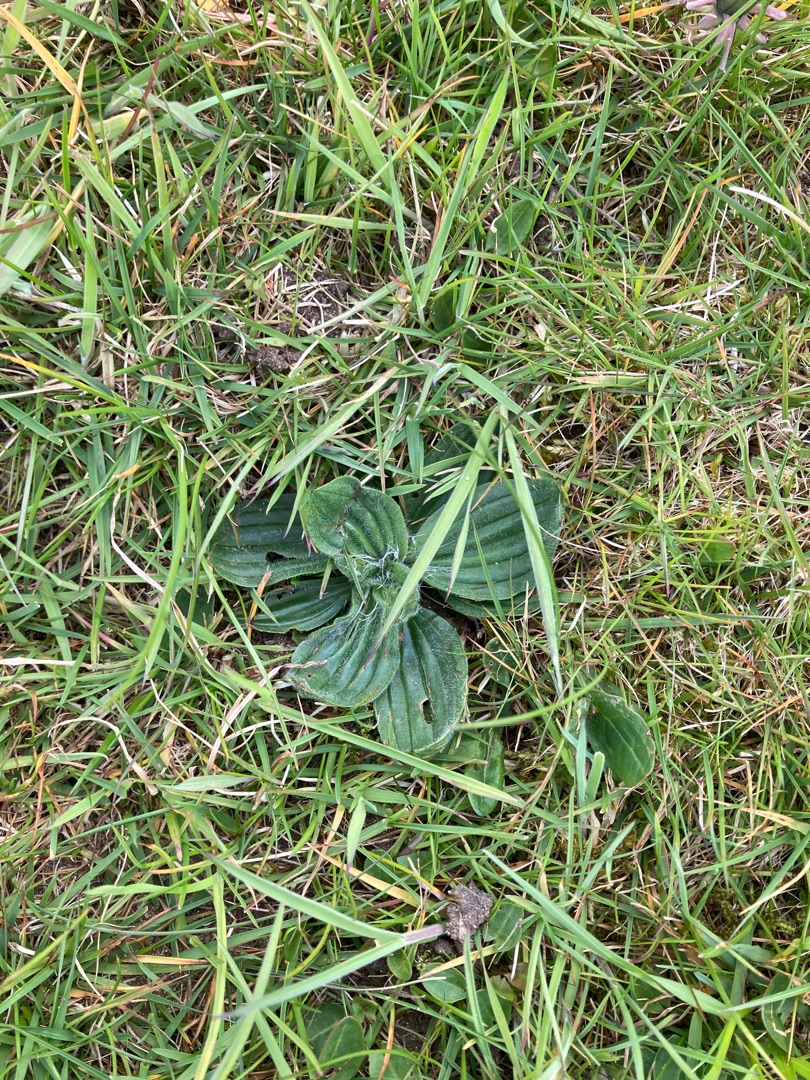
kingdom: Plantae
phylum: Tracheophyta
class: Magnoliopsida
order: Lamiales
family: Plantaginaceae
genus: Plantago
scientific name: Plantago lanceolata
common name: Lancet-vejbred
